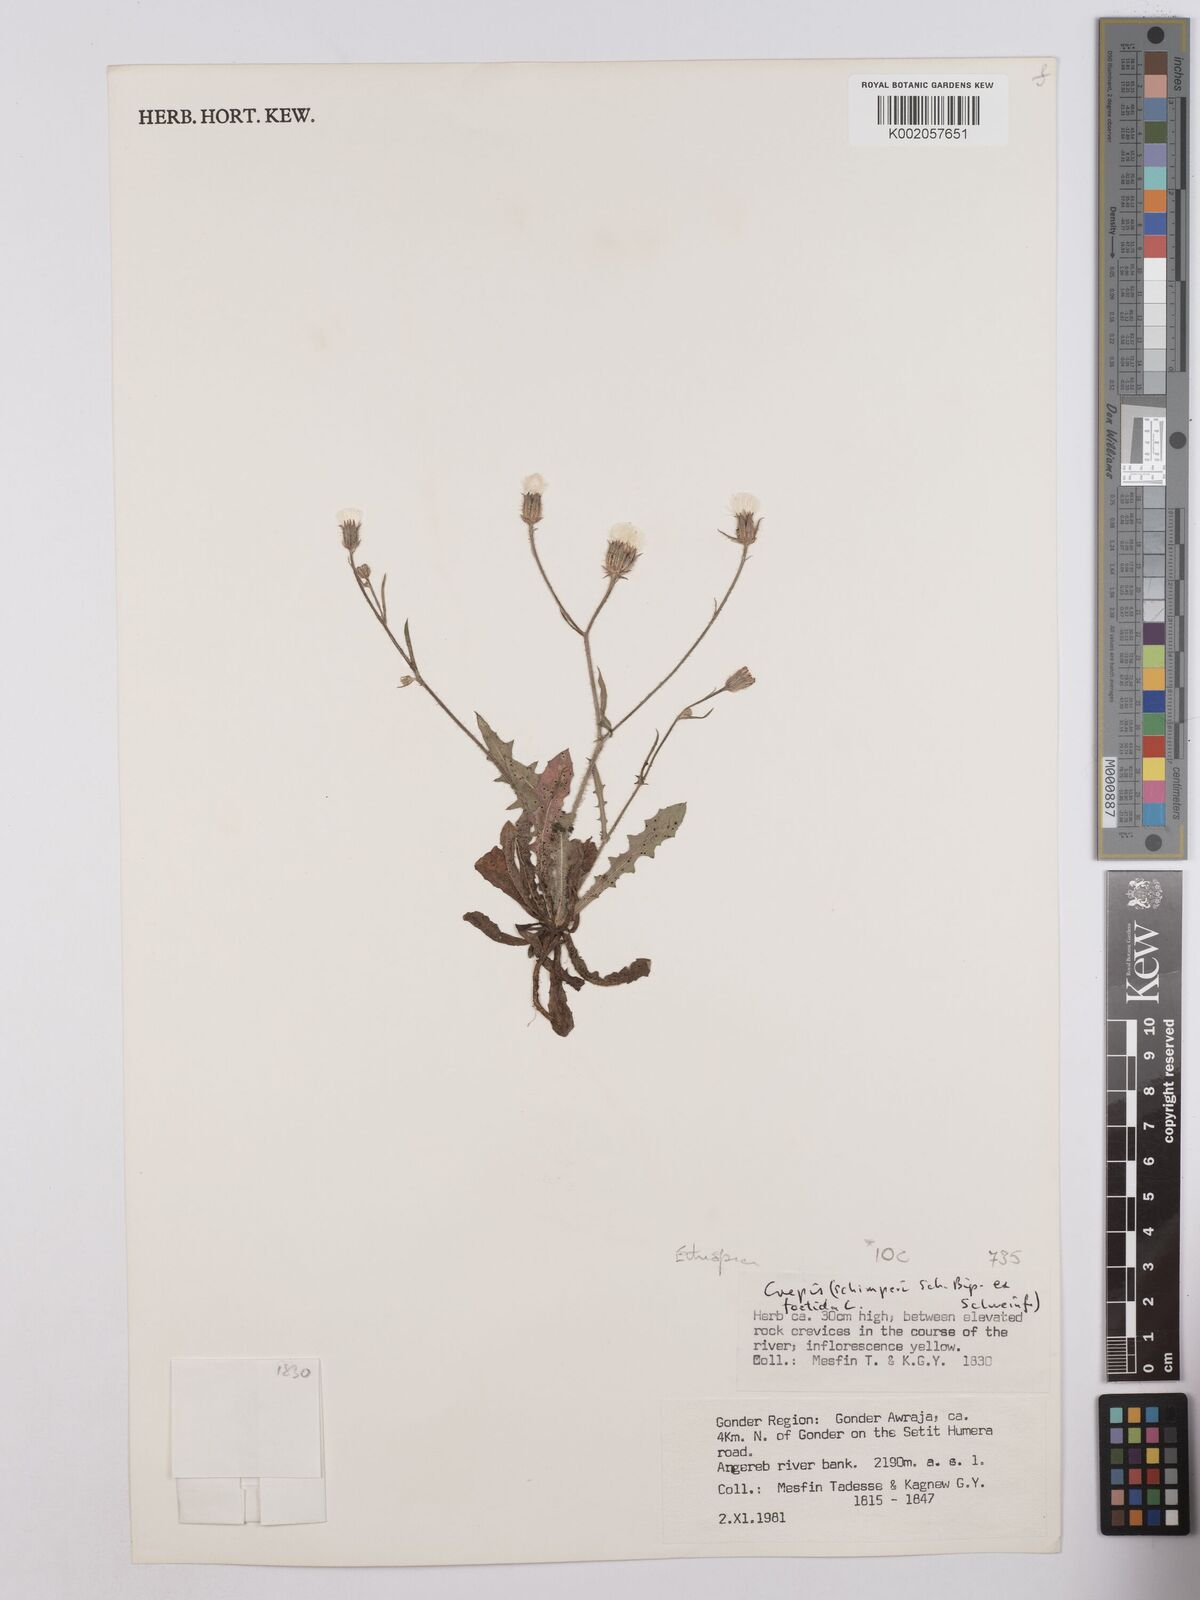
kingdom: Plantae
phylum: Tracheophyta
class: Magnoliopsida
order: Asterales
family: Asteraceae
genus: Crepis
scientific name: Crepis foetida
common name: Stinking hawk's-beard
